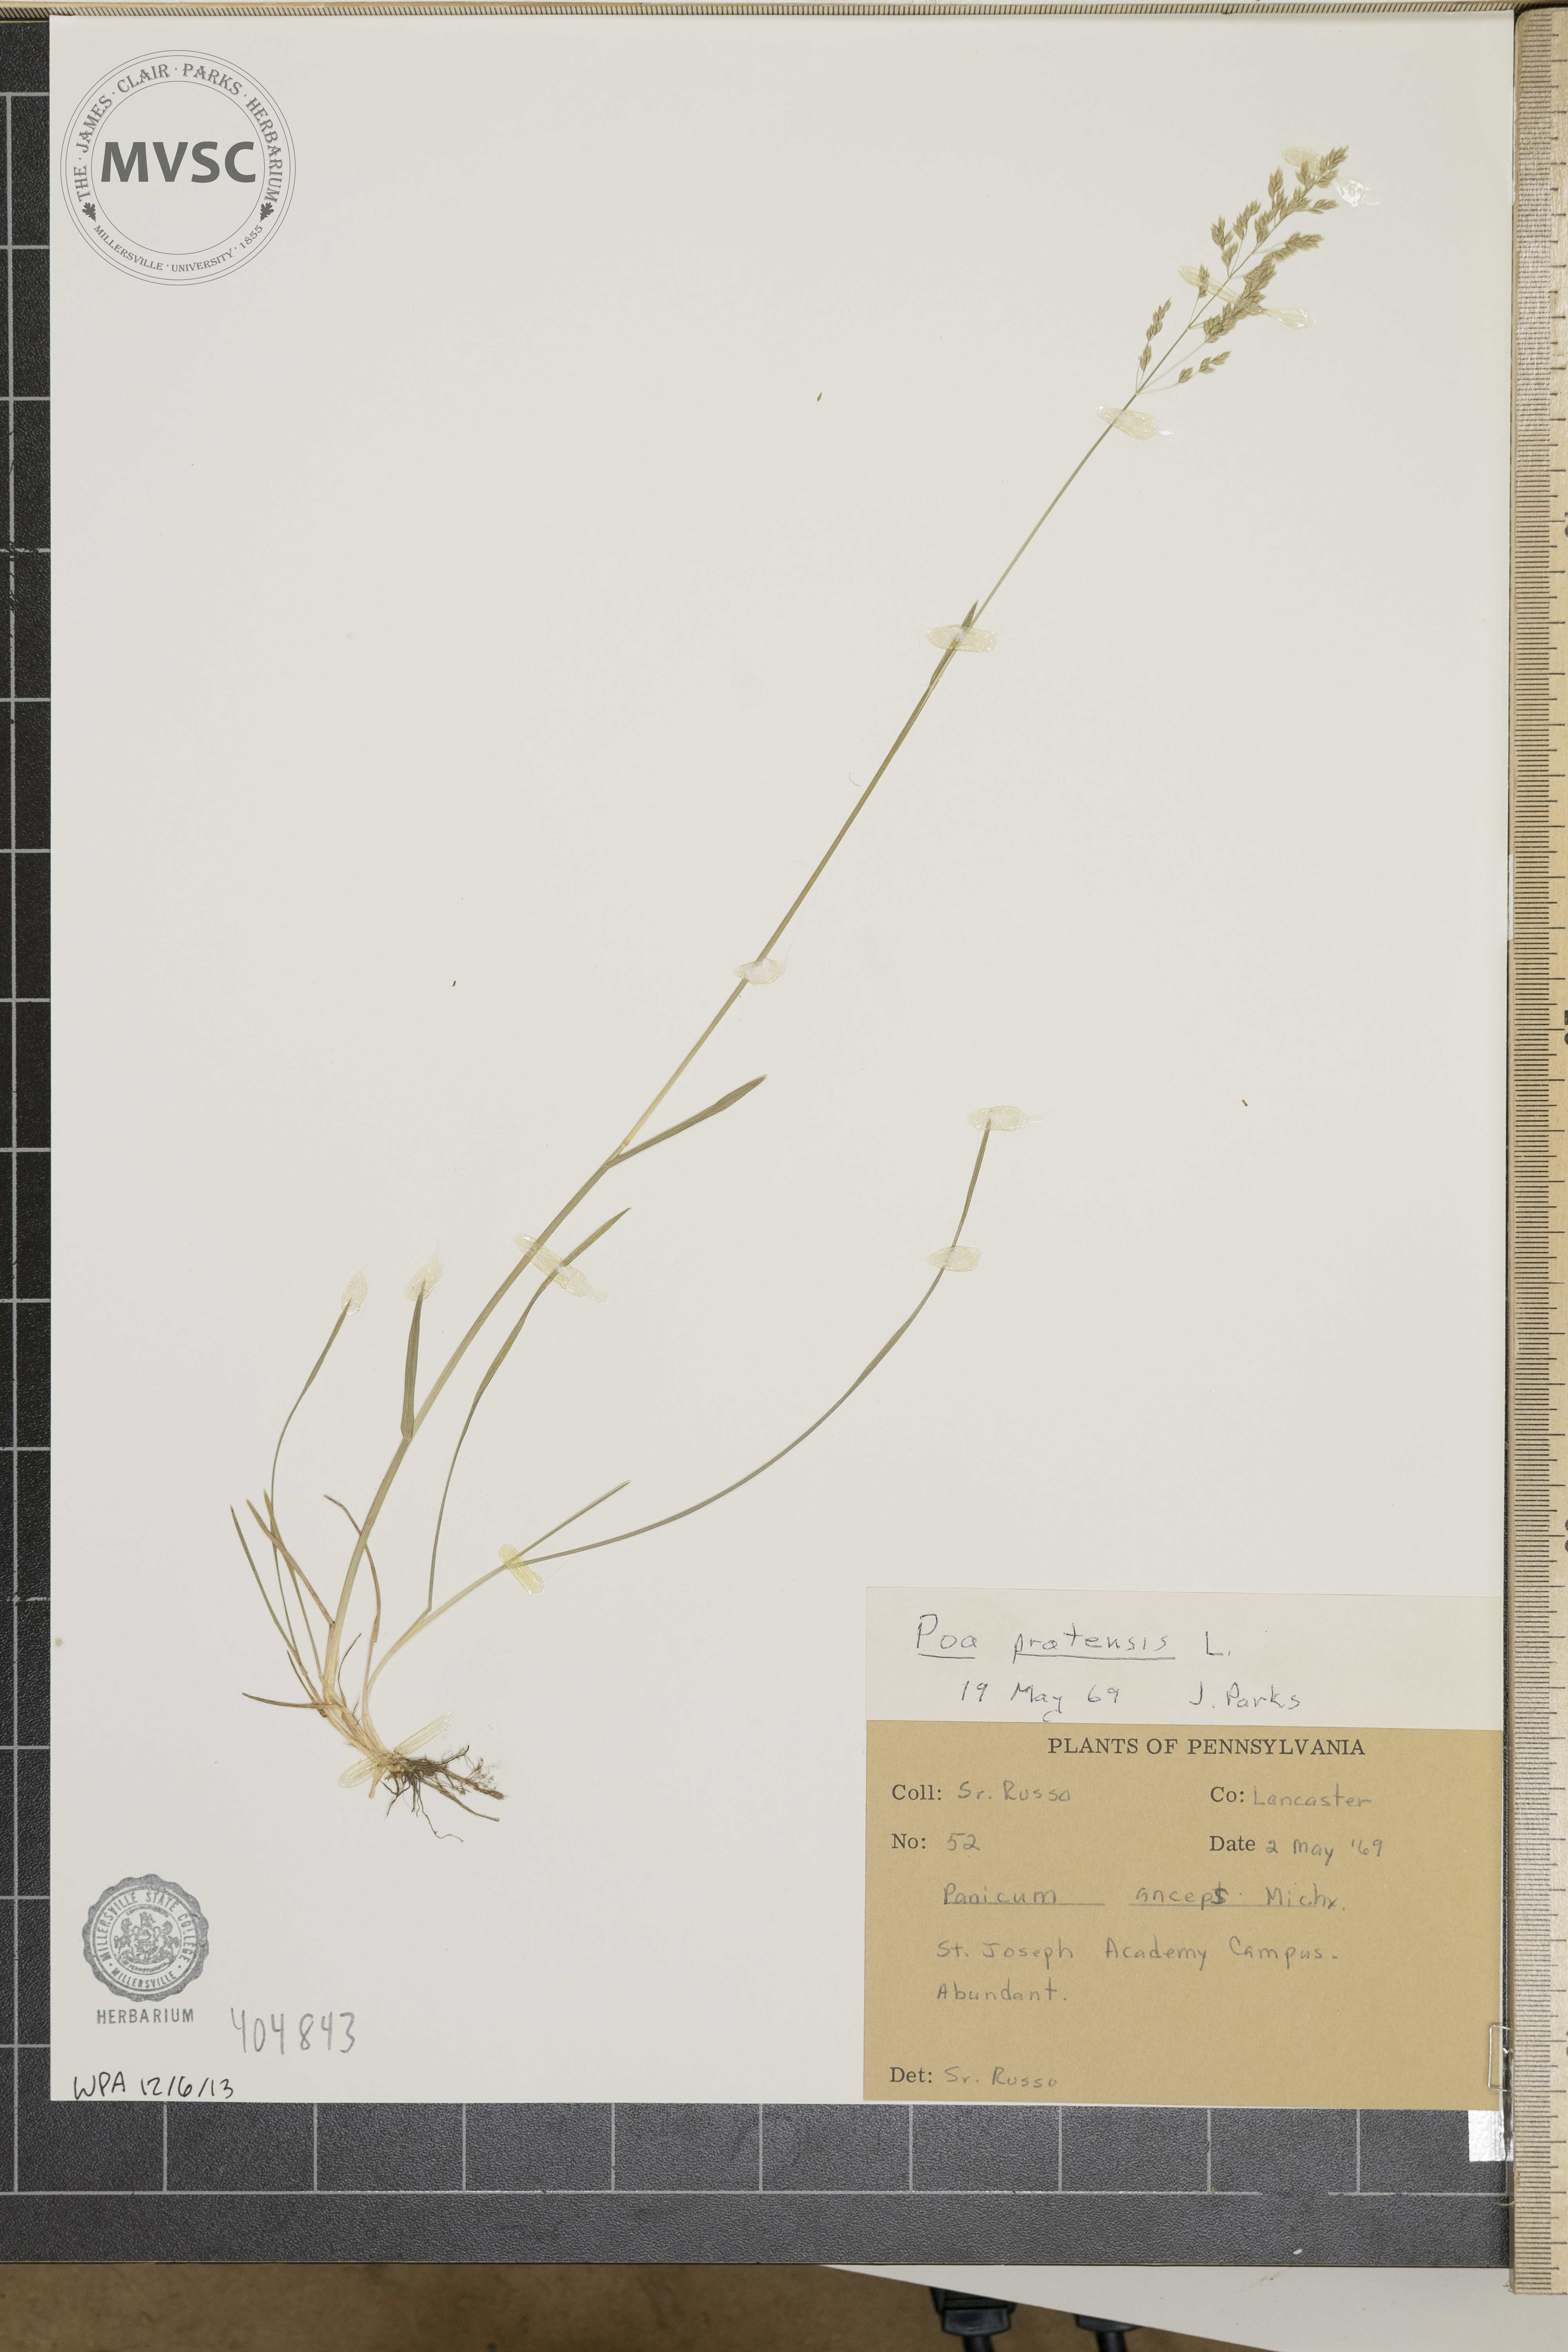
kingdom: Plantae
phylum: Tracheophyta
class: Liliopsida
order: Poales
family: Poaceae
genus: Poa
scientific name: Poa pratensis
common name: Kentucky bluegrass
